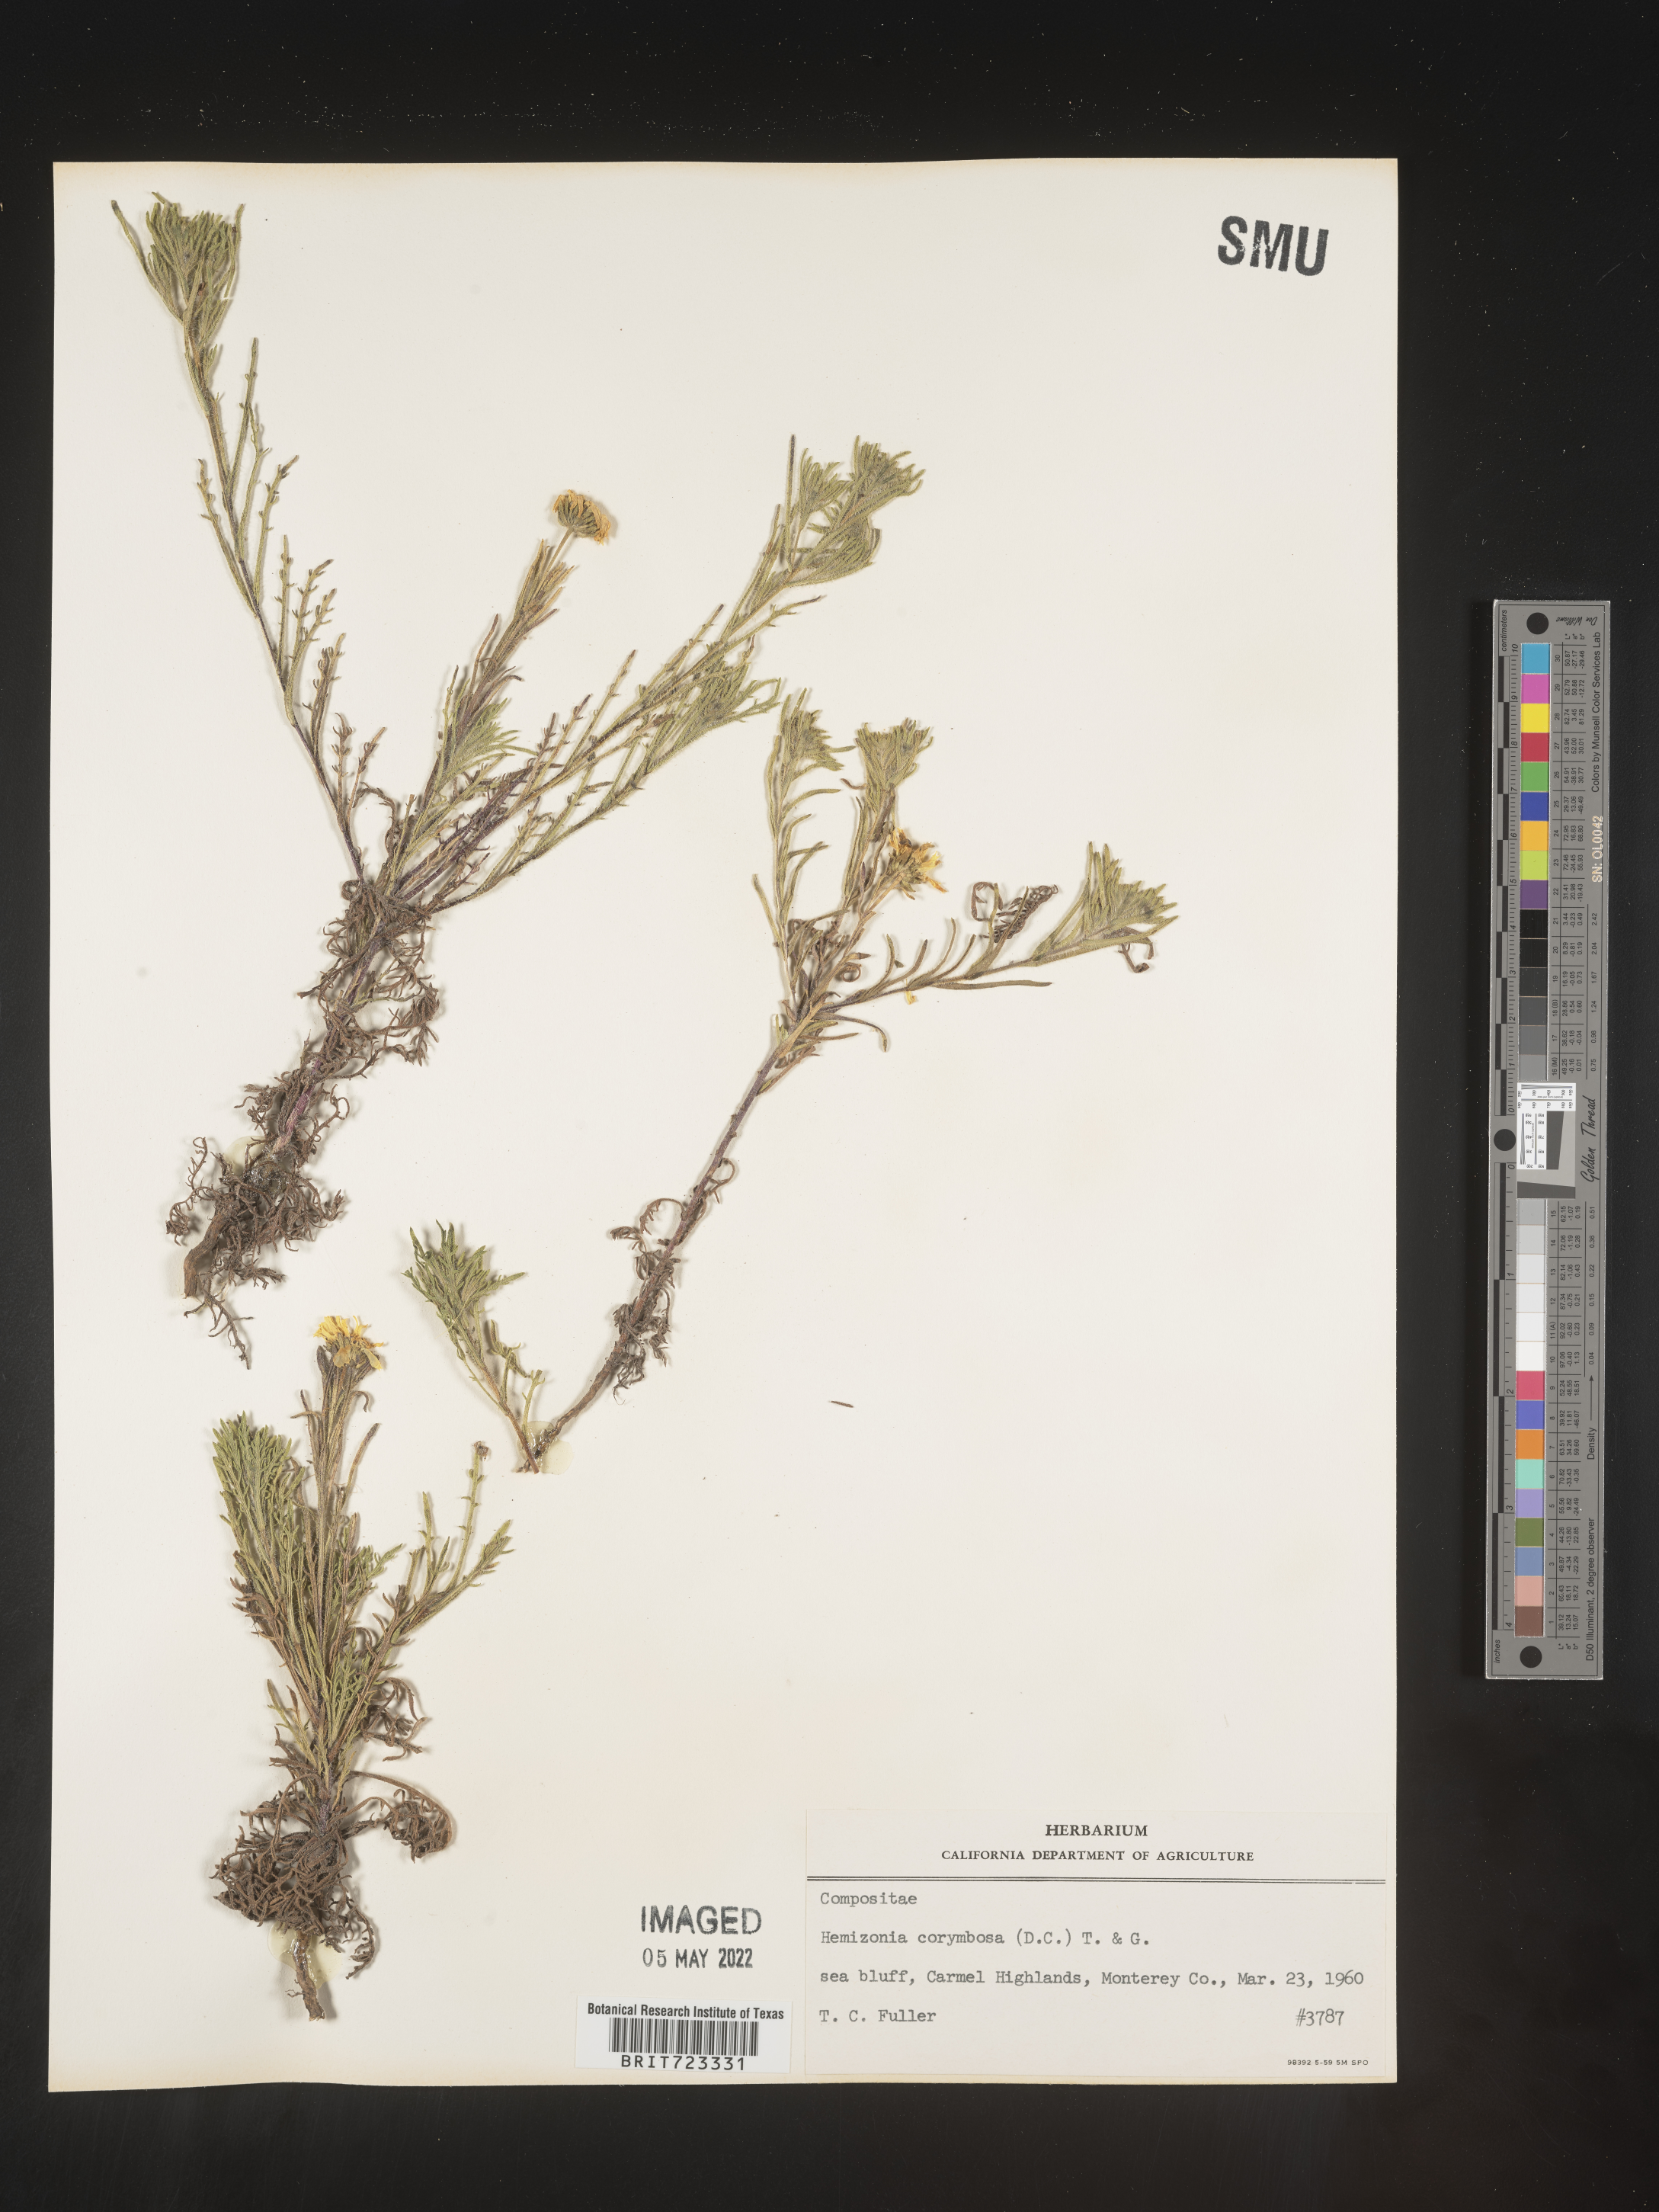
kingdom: Plantae
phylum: Tracheophyta
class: Magnoliopsida
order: Asterales
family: Asteraceae
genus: Hemizonia
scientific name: Hemizonia
